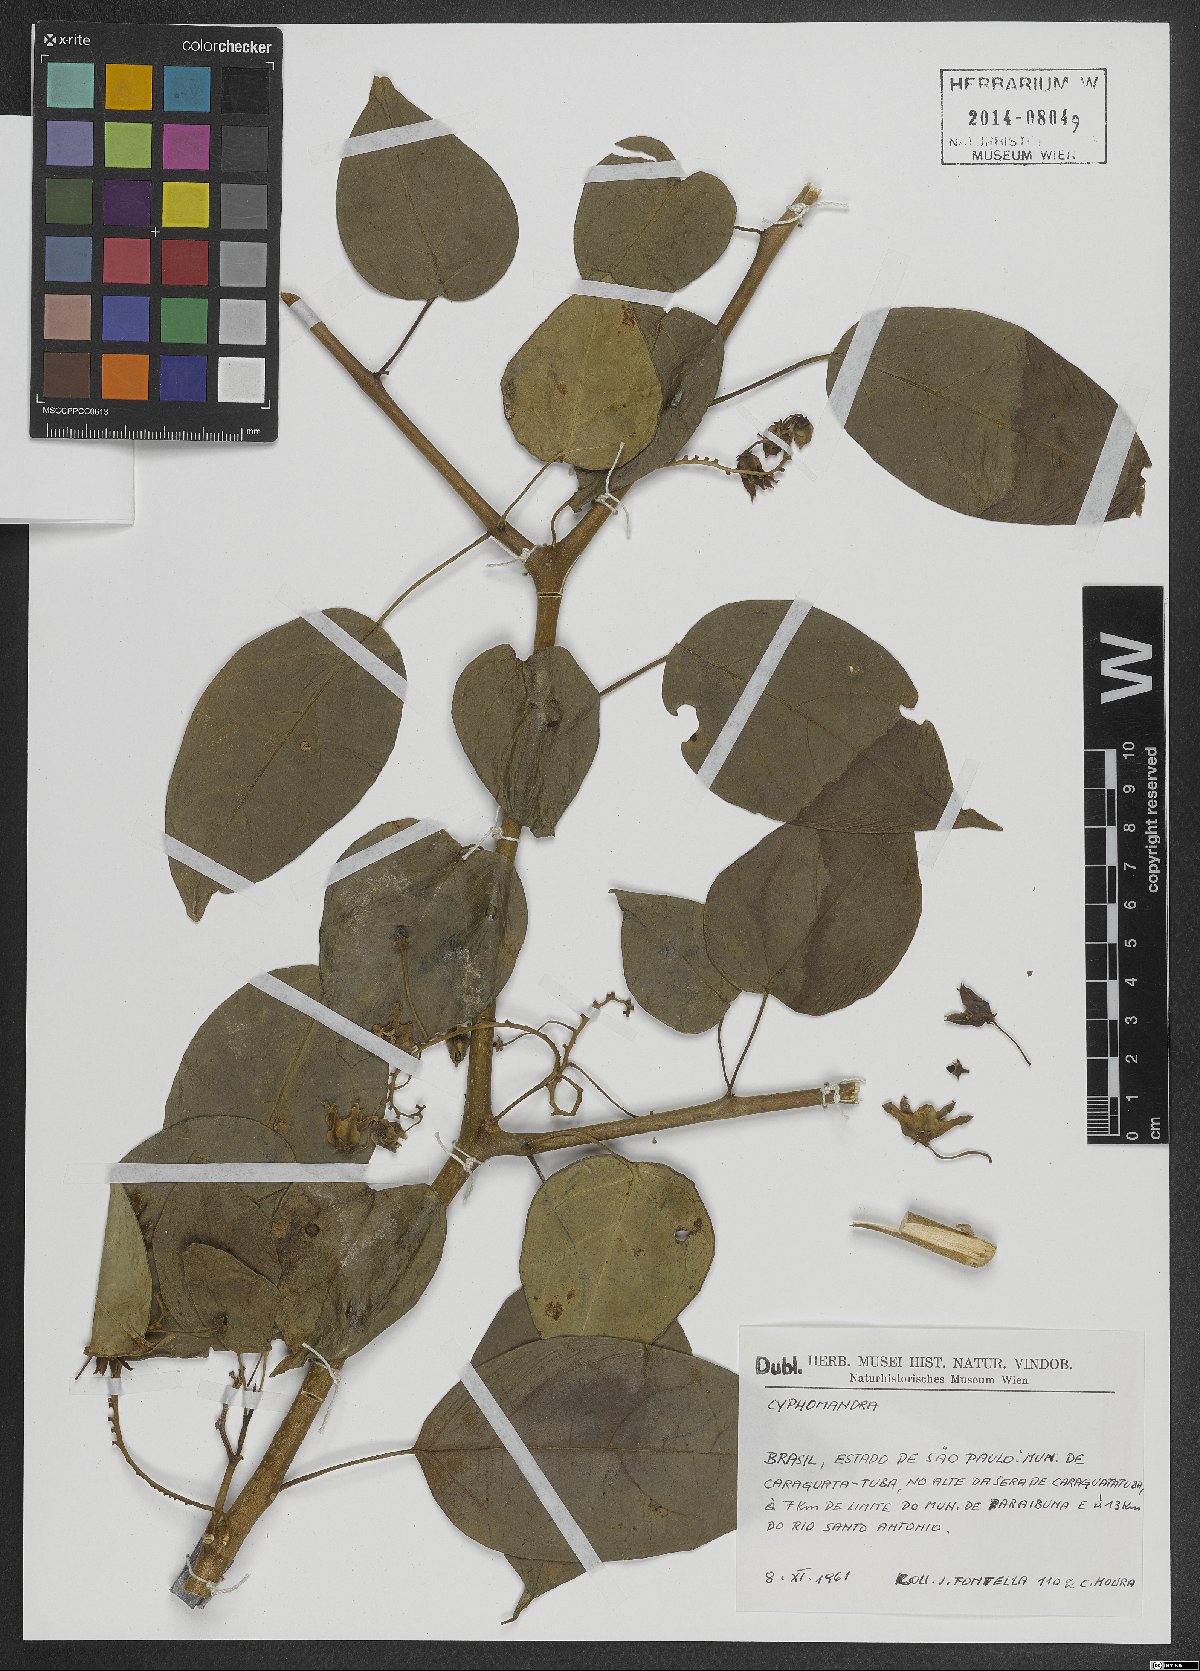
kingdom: Plantae
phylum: Tracheophyta
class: Magnoliopsida
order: Solanales
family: Solanaceae
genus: Solanum
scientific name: Solanum
